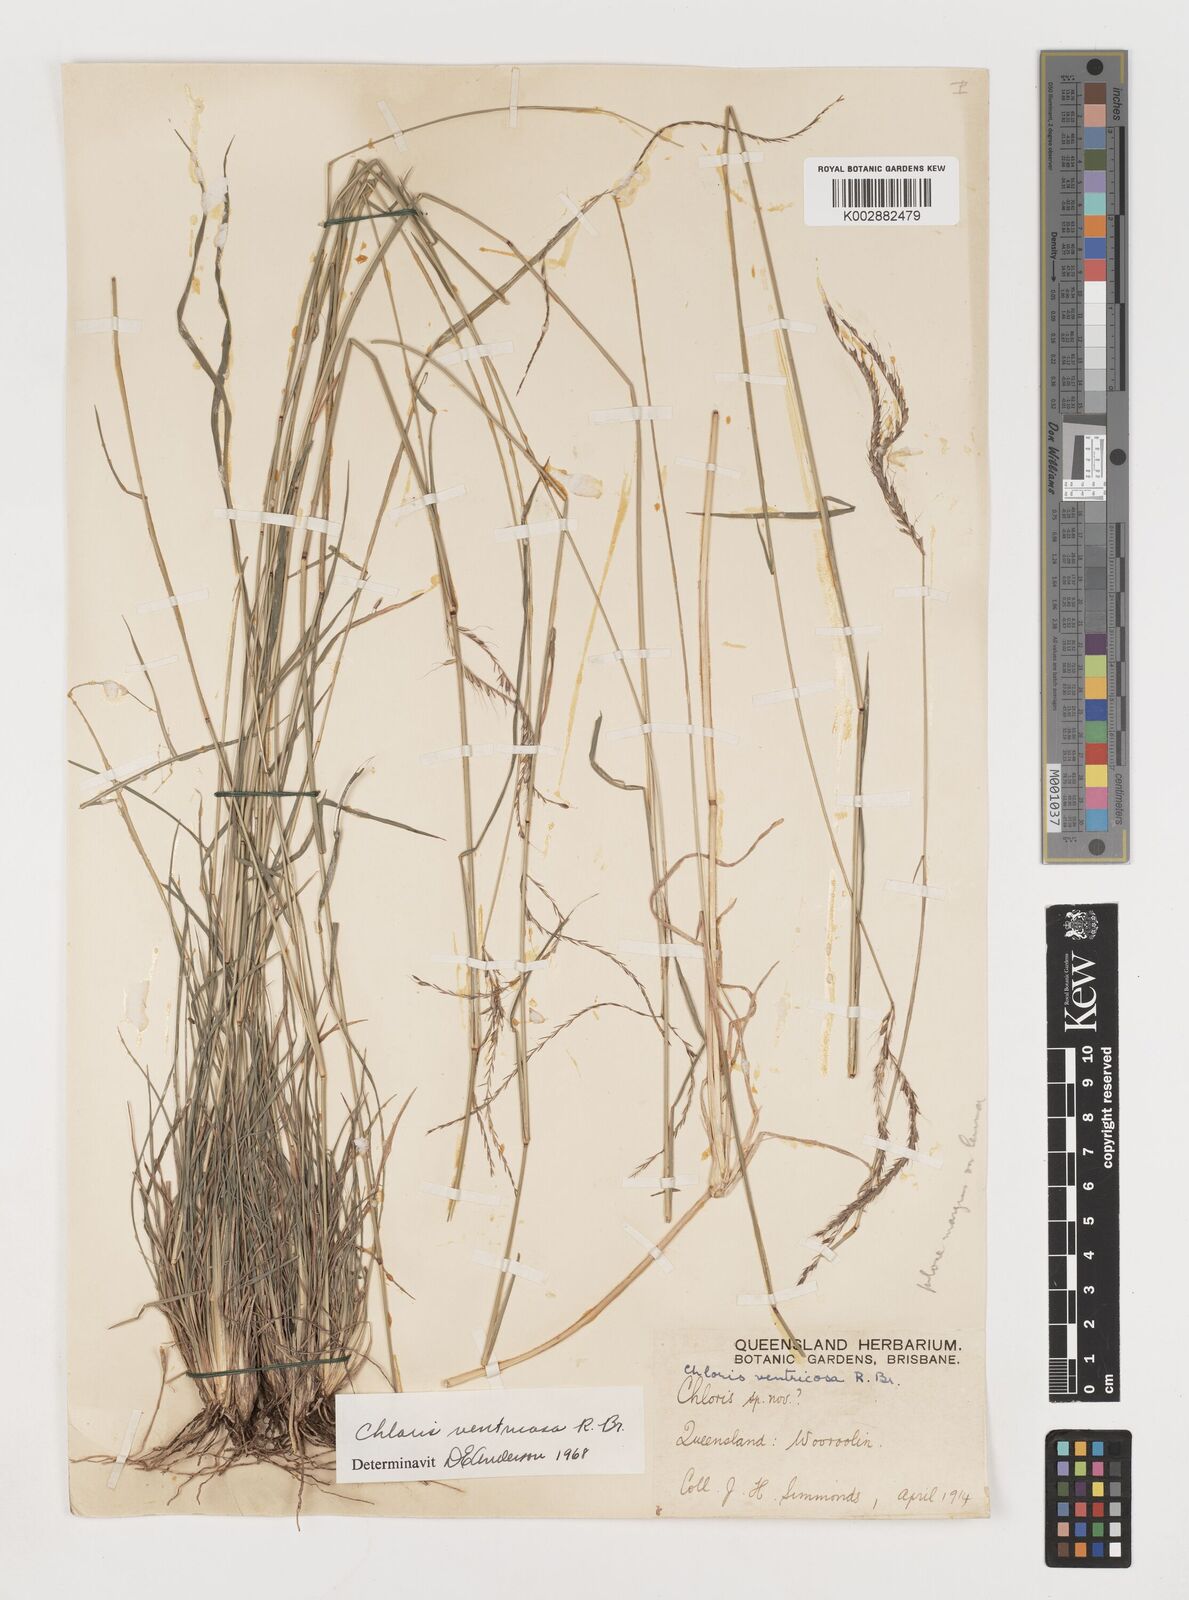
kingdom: Plantae
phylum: Tracheophyta
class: Liliopsida
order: Poales
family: Poaceae
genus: Chloris
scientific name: Chloris ventricosa
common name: Australian windmill grass
